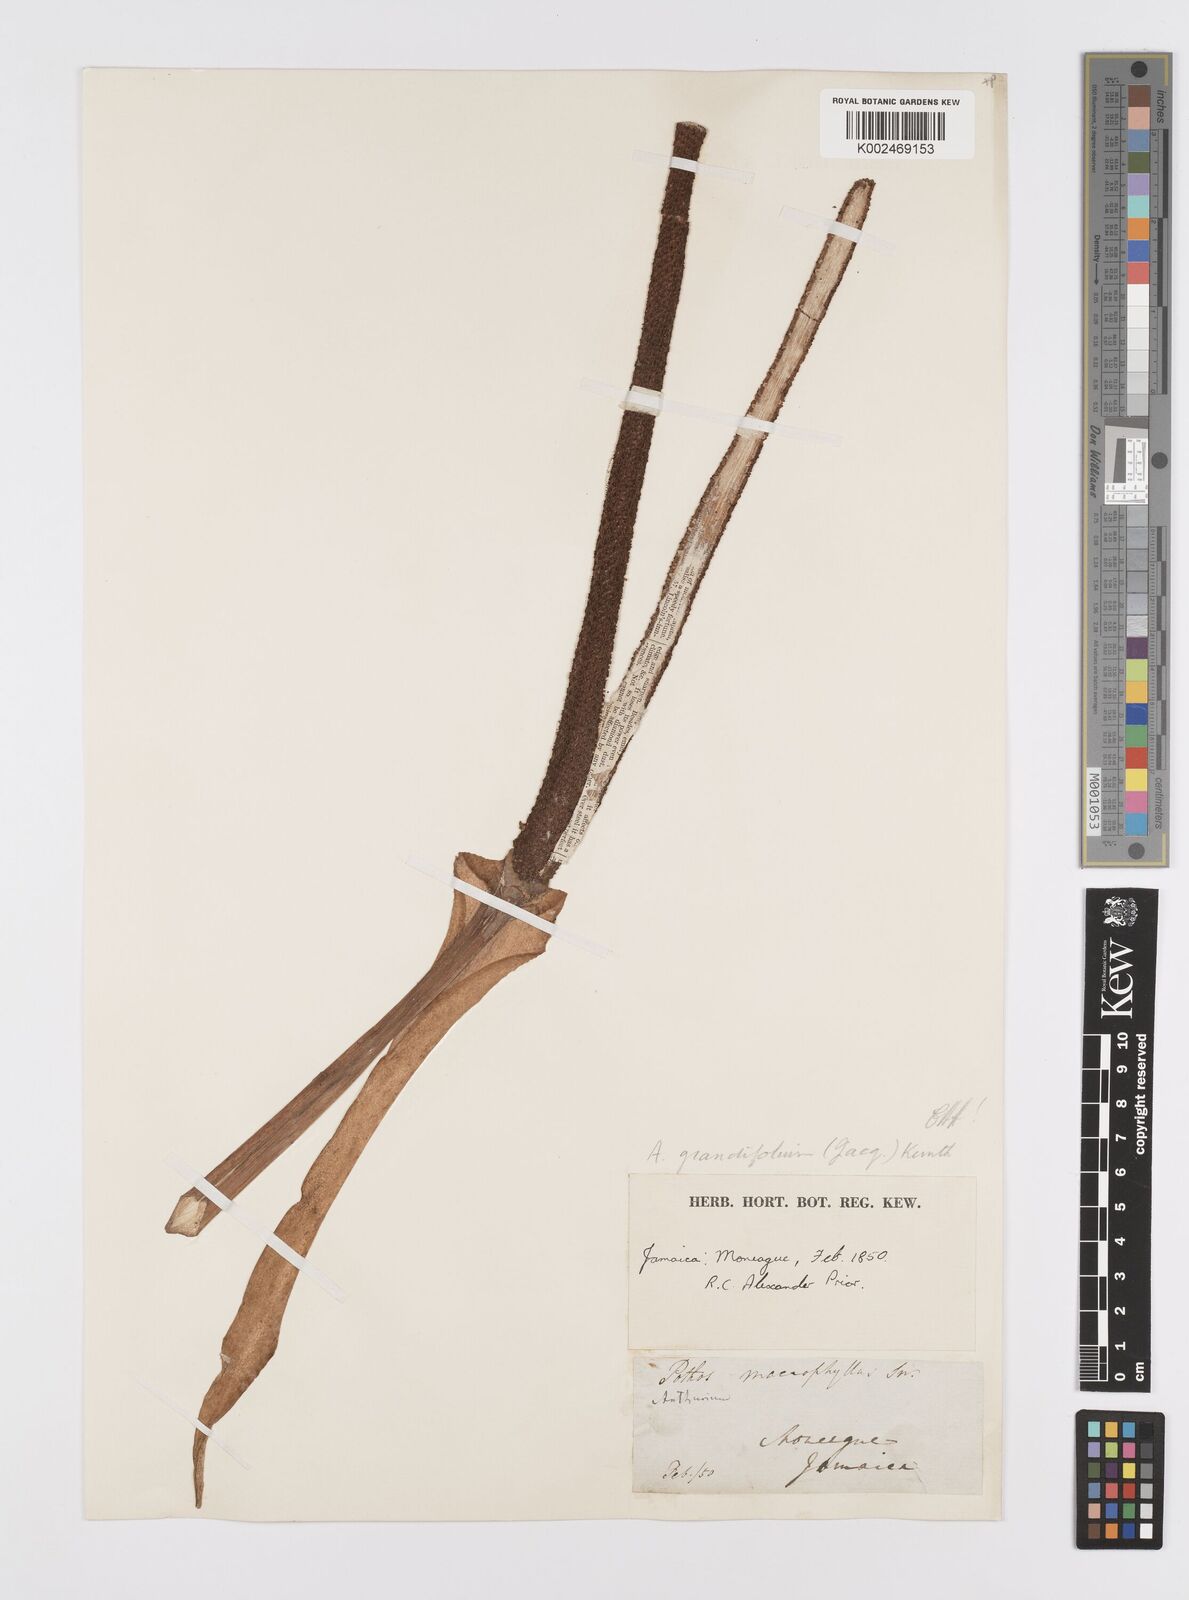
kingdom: Plantae
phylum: Tracheophyta
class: Liliopsida
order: Alismatales
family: Araceae
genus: Anthurium
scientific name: Anthurium grandifolium
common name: Monkey tail
